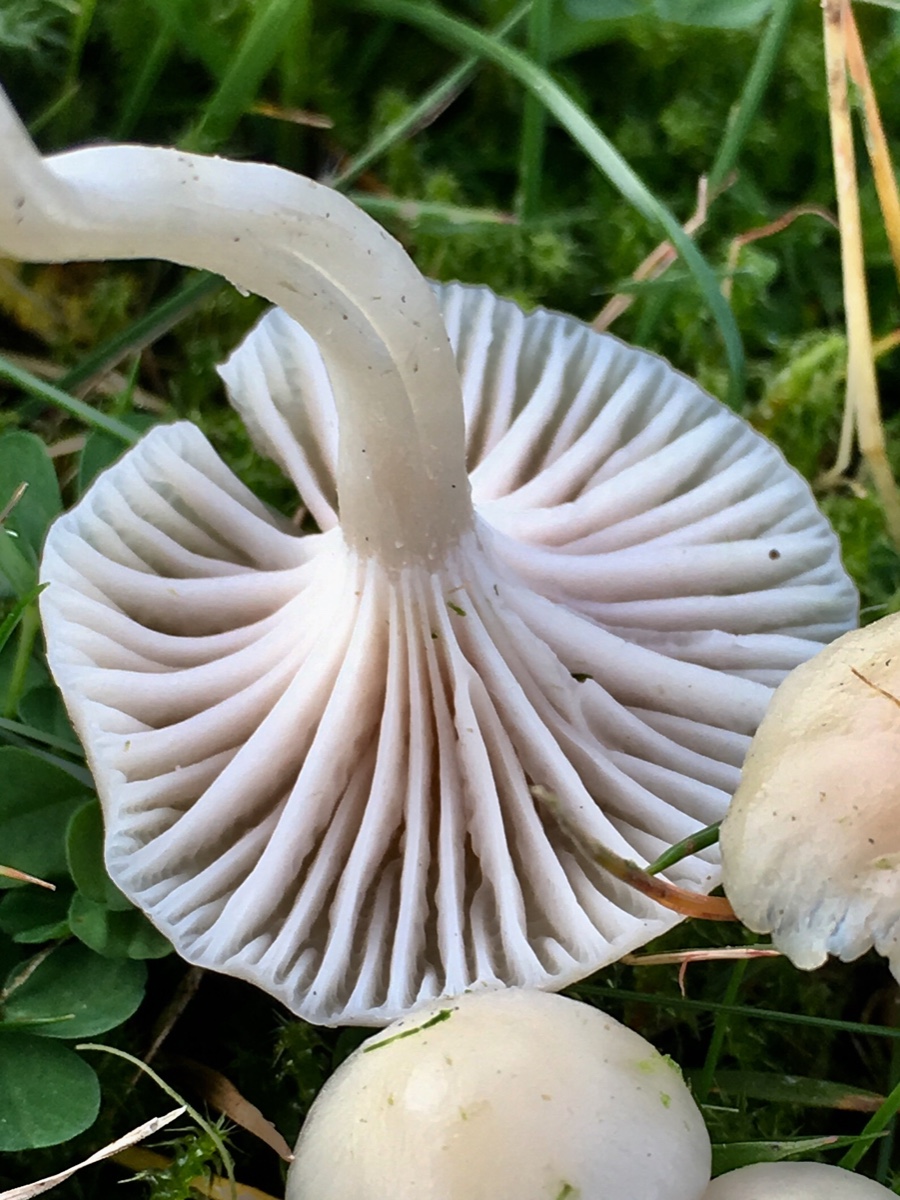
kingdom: Fungi
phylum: Basidiomycota
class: Agaricomycetes
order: Agaricales
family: Hygrophoraceae
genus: Cuphophyllus
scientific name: Cuphophyllus virgineus
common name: snehvid vokshat
